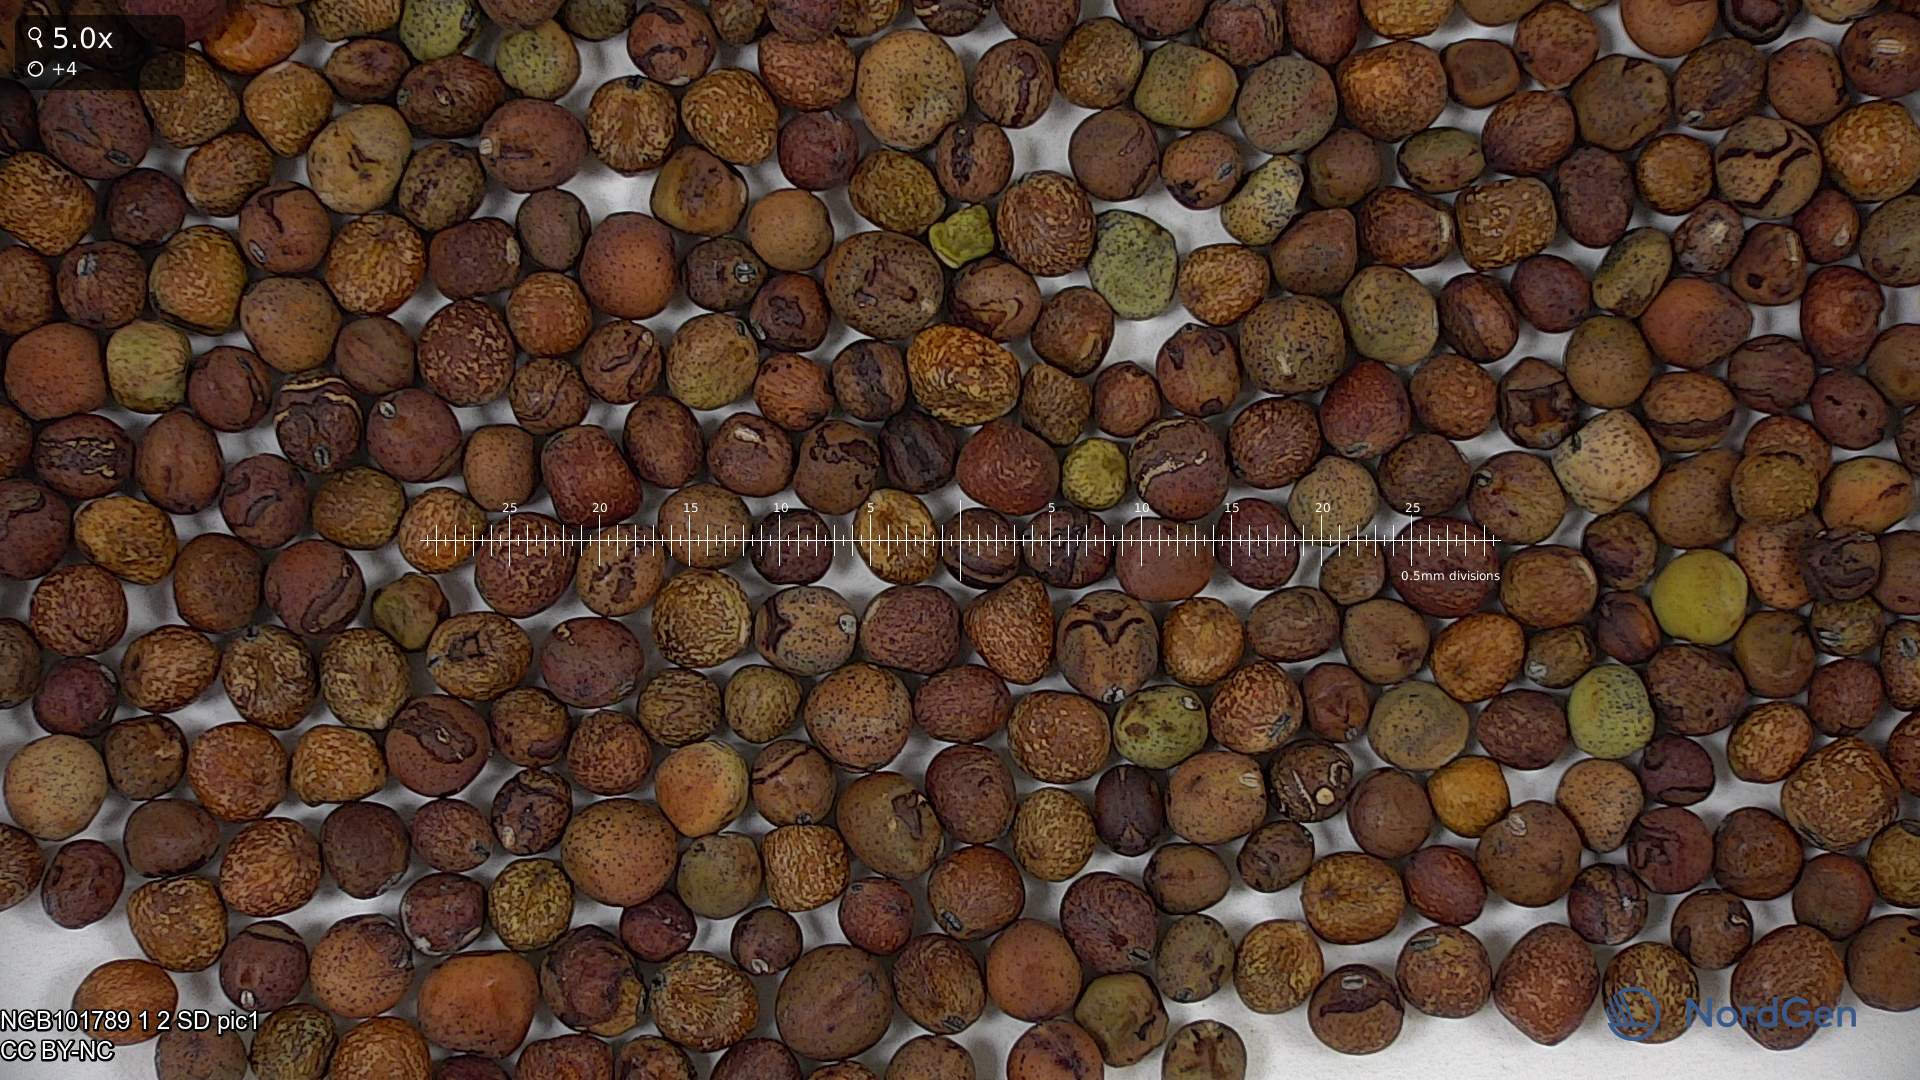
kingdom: Plantae
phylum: Tracheophyta
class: Magnoliopsida
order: Fabales
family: Fabaceae
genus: Lathyrus
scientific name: Lathyrus oleraceus
